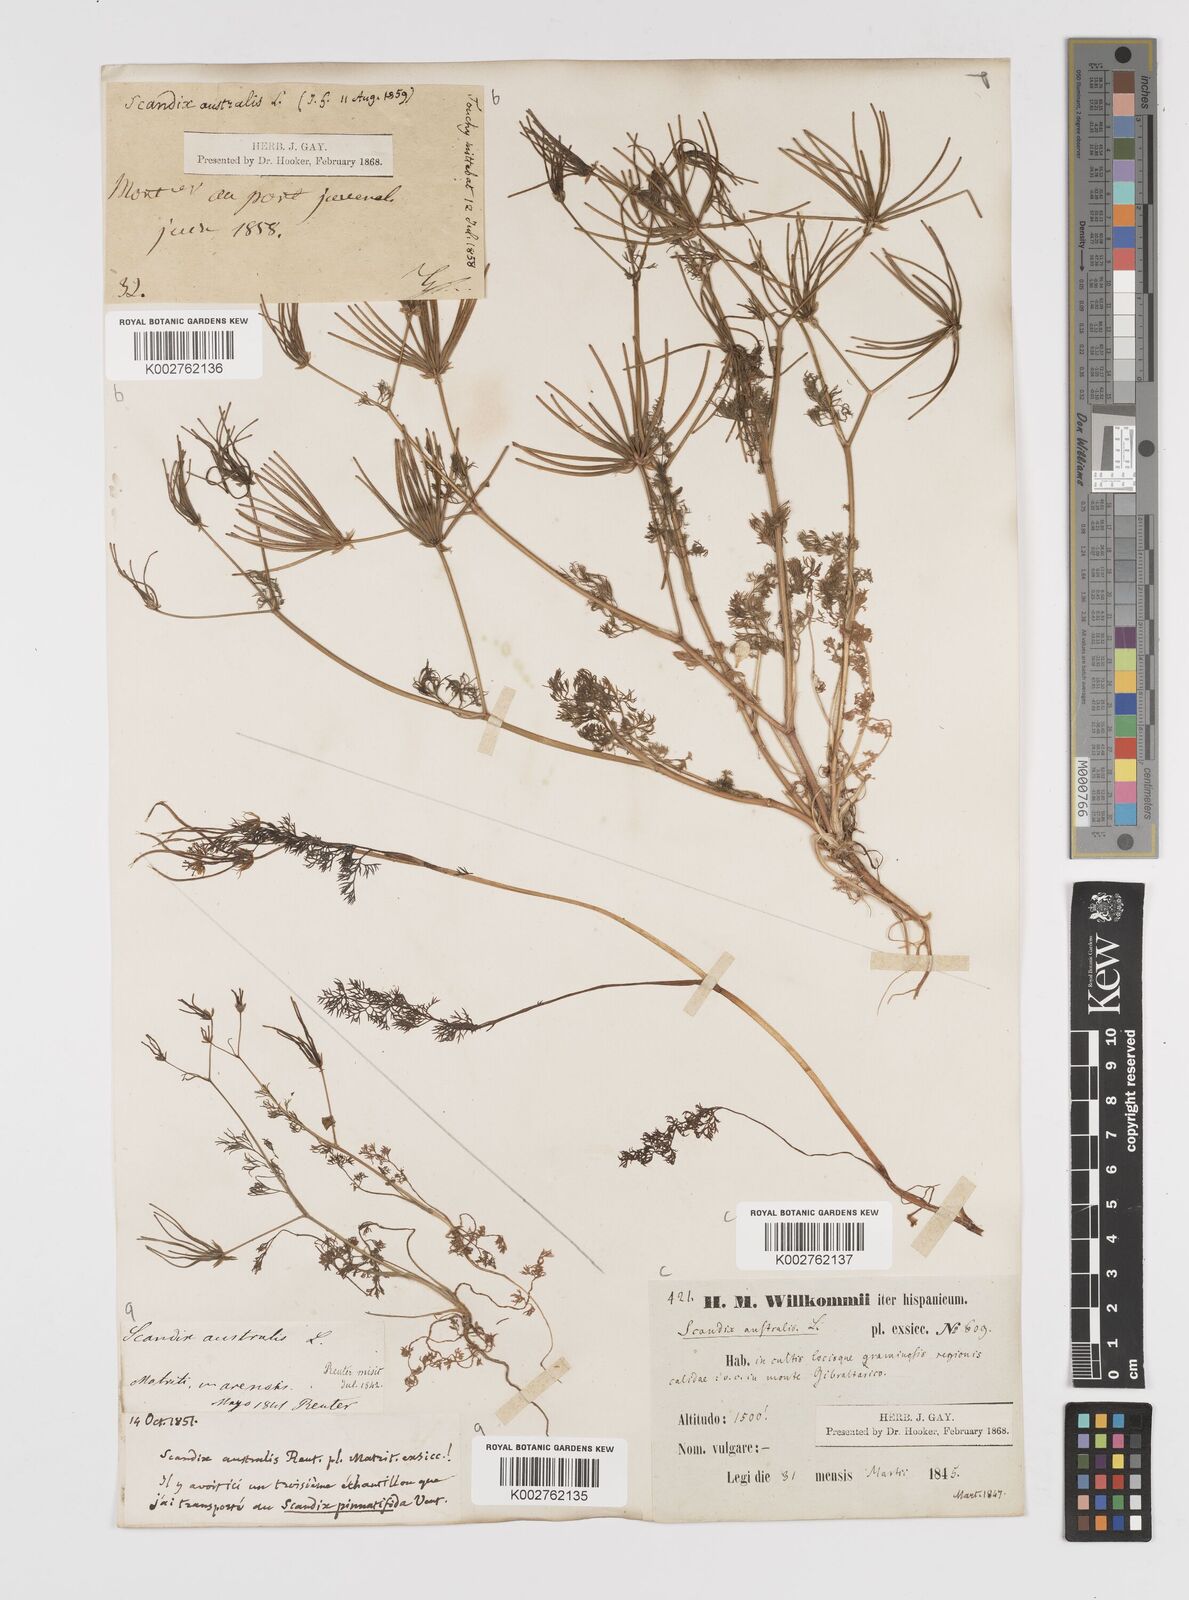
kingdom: Plantae
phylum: Tracheophyta
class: Magnoliopsida
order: Apiales
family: Apiaceae
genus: Scandix
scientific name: Scandix australis
